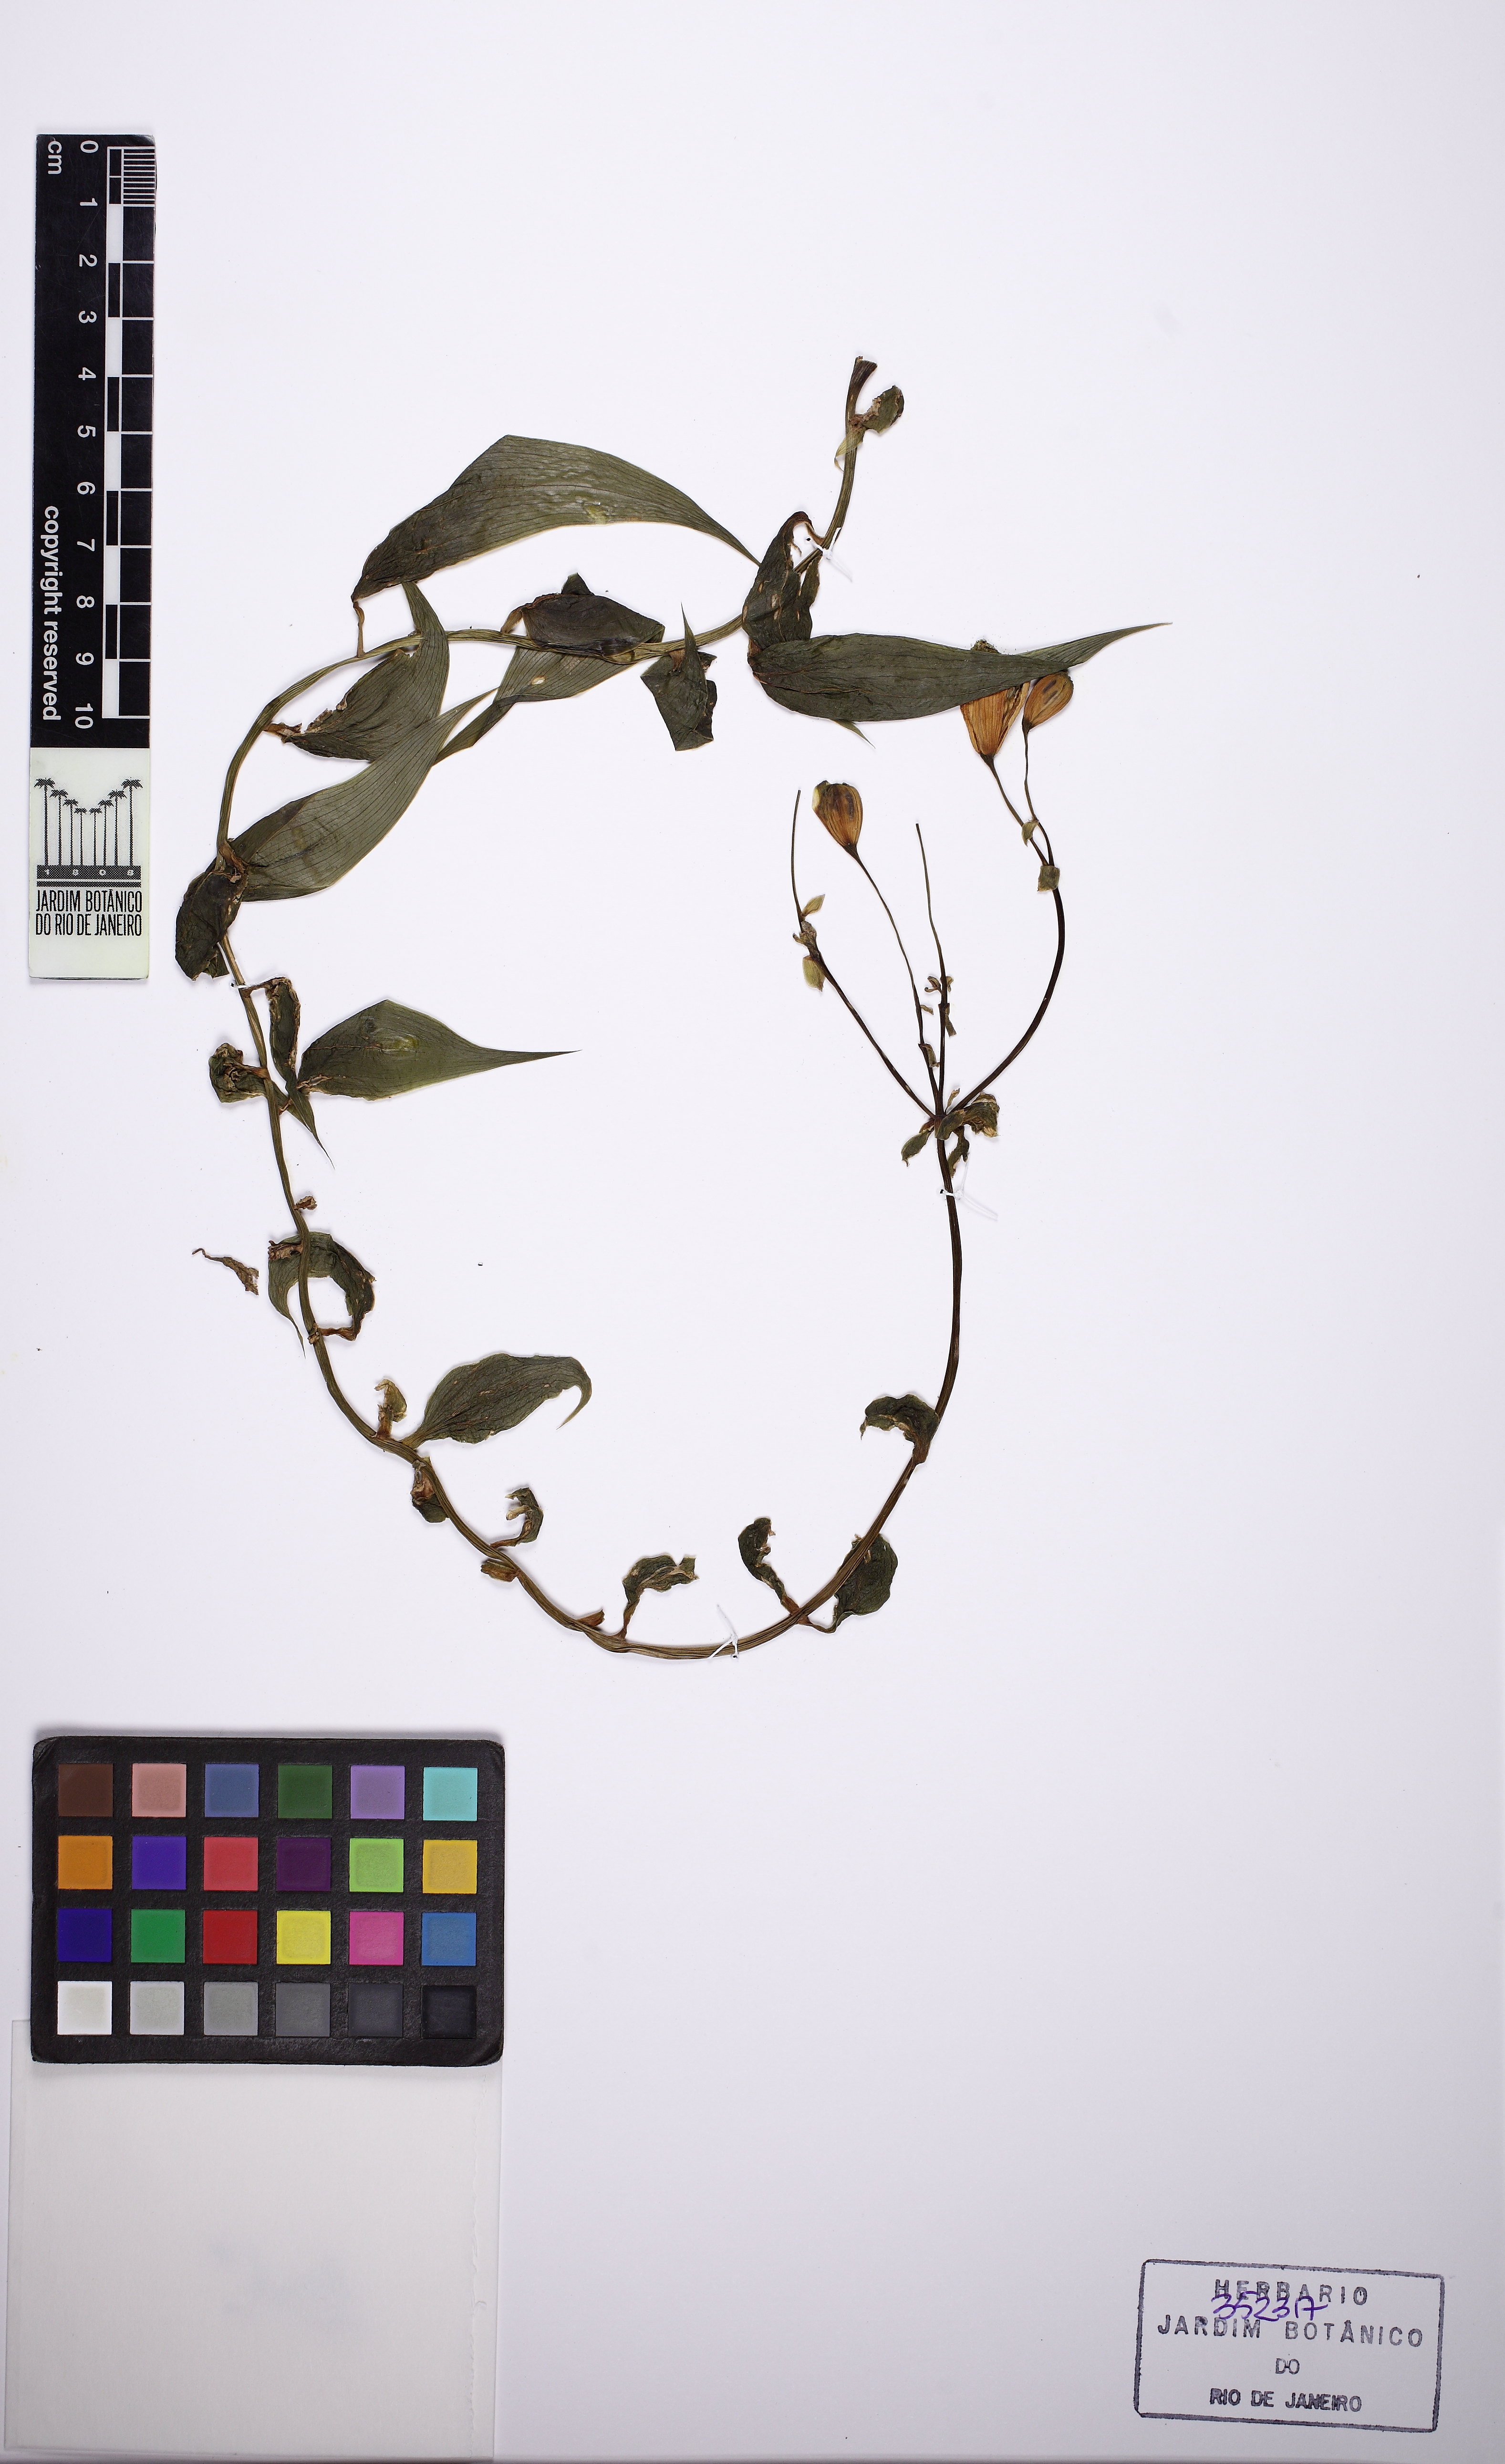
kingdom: Plantae
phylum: Tracheophyta
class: Liliopsida
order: Liliales
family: Alstroemeriaceae
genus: Bomarea
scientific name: Bomarea edulis
